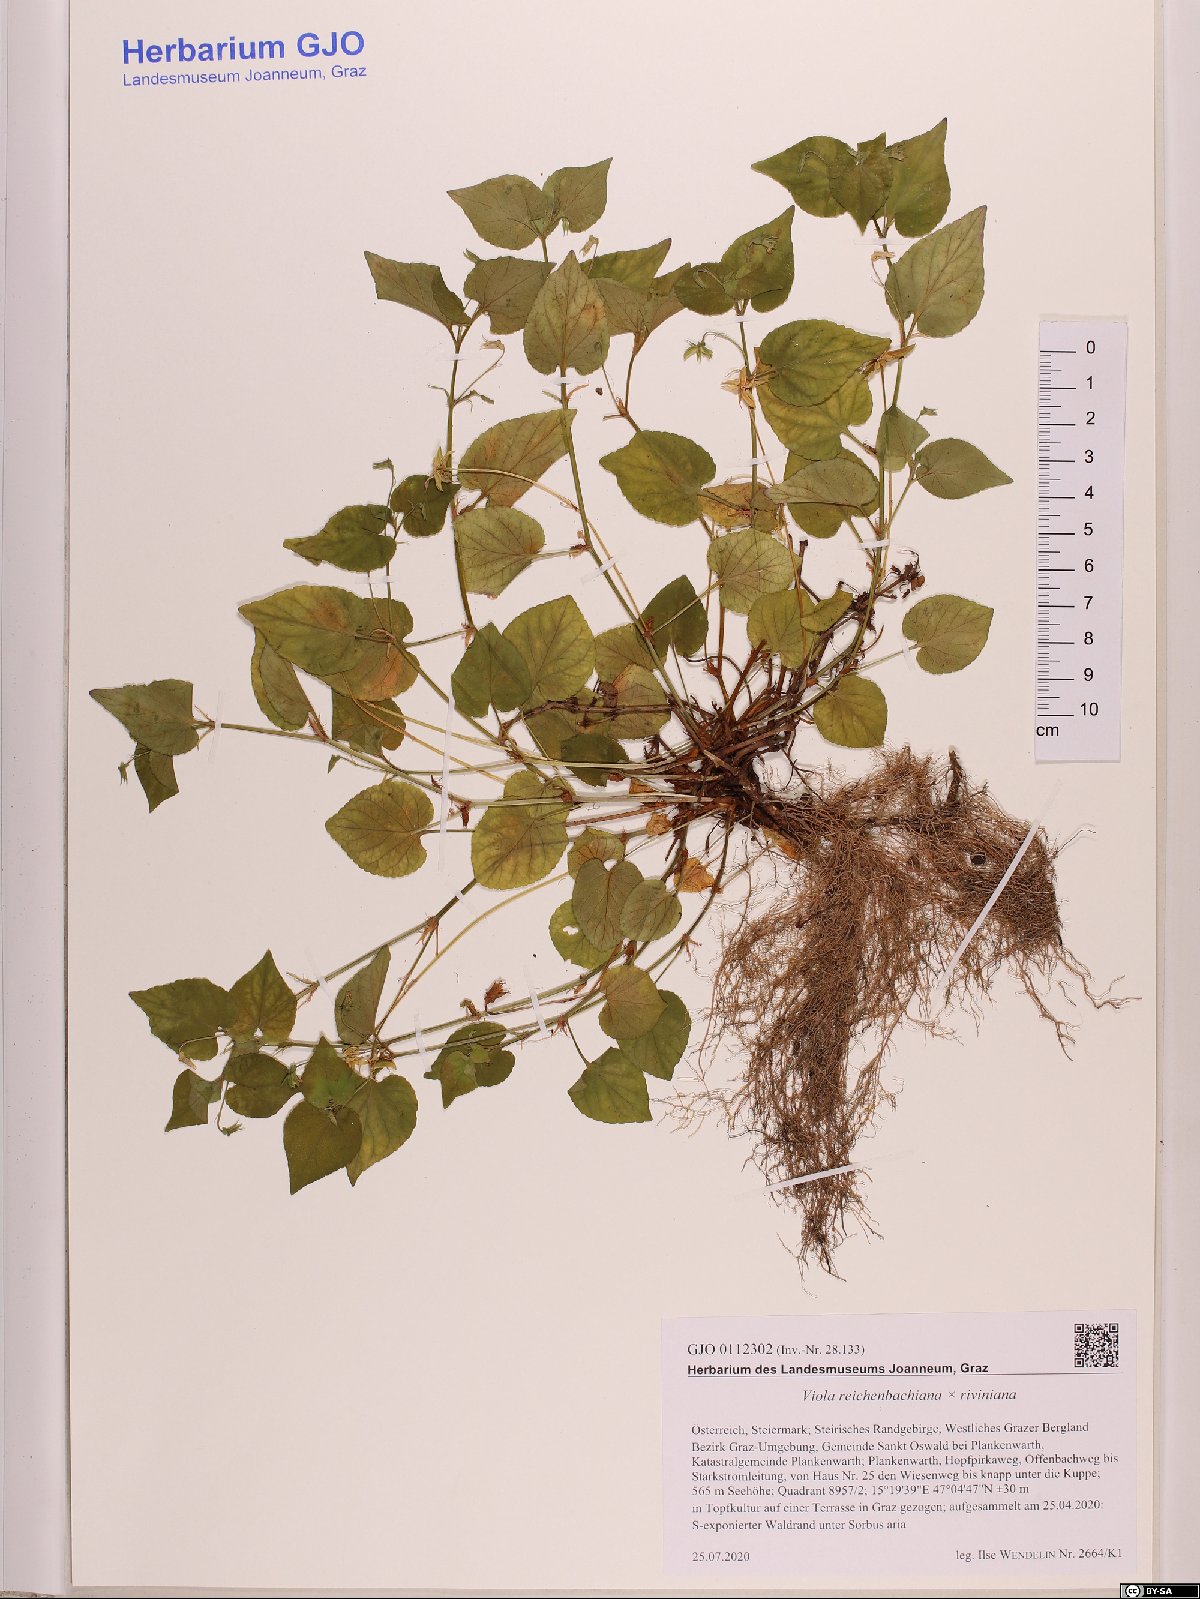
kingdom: Plantae
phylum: Tracheophyta
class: Magnoliopsida
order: Malpighiales
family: Violaceae
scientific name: Violaceae
